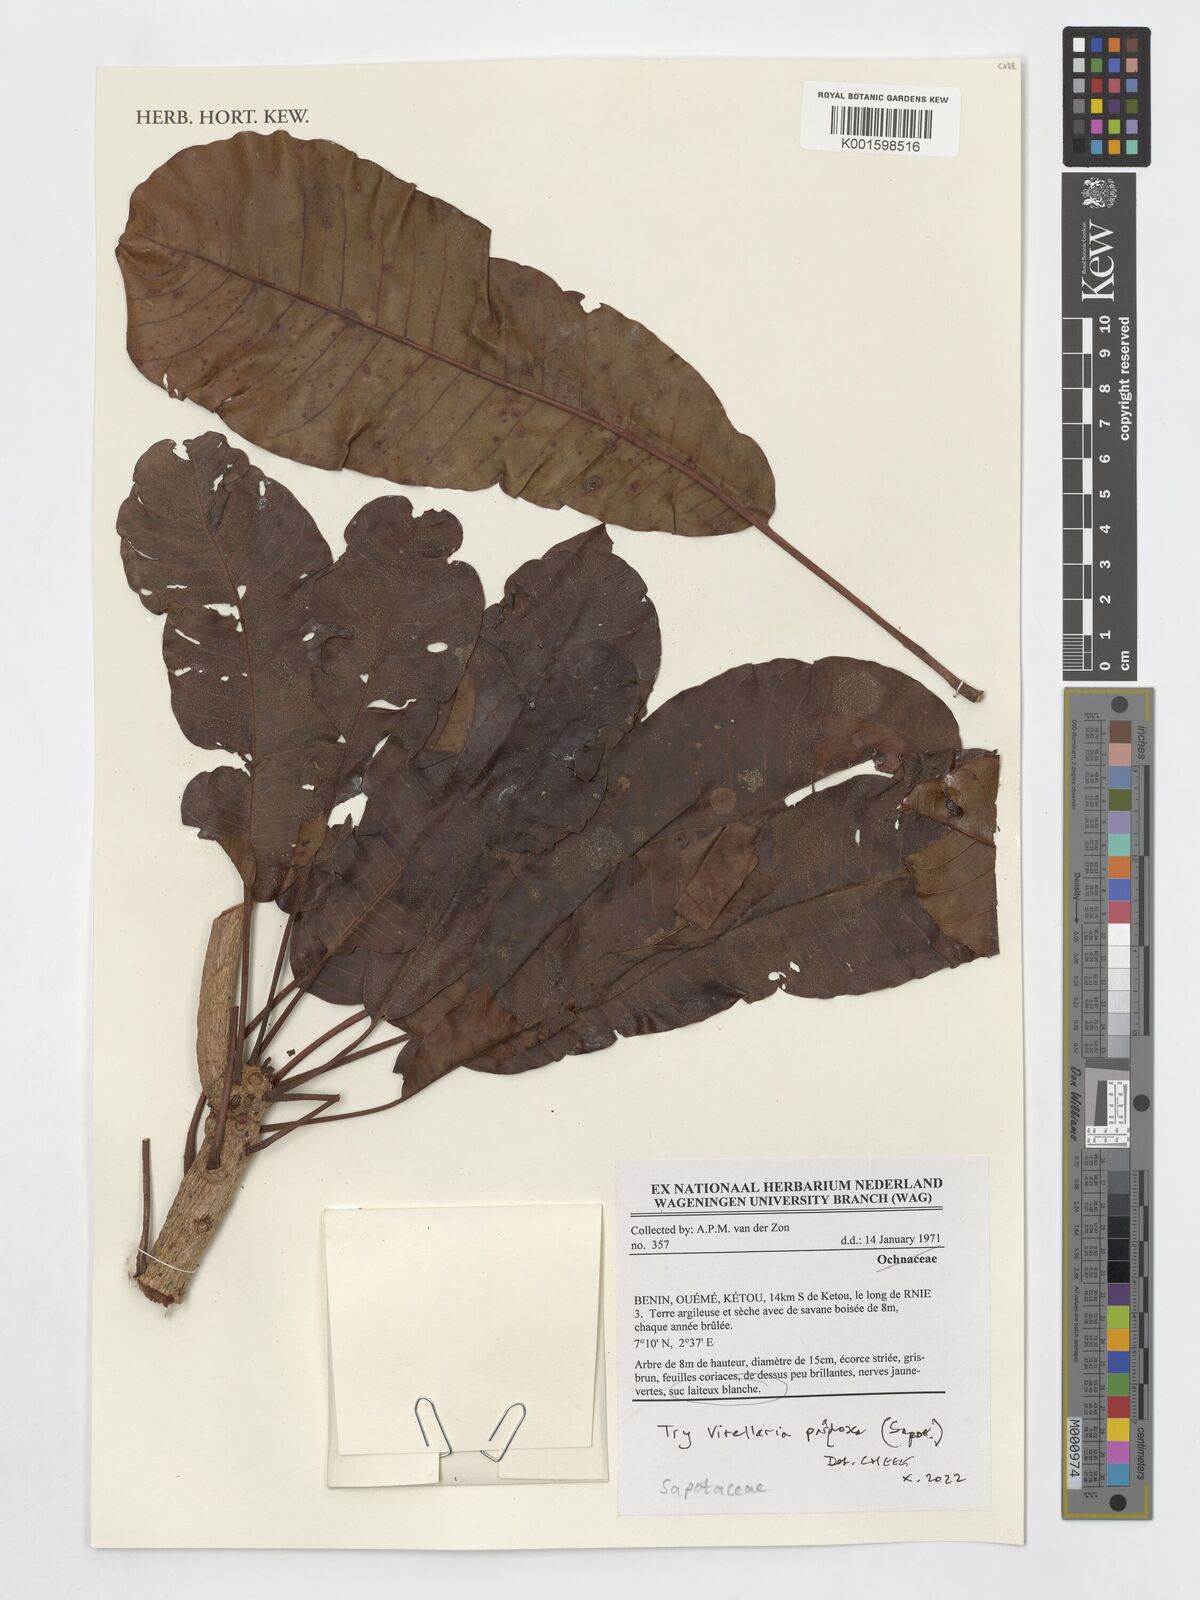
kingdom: Plantae
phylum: Tracheophyta
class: Magnoliopsida
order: Ericales
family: Sapotaceae
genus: Vitellaria
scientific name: Vitellaria paradoxa
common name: Shea butter tree
